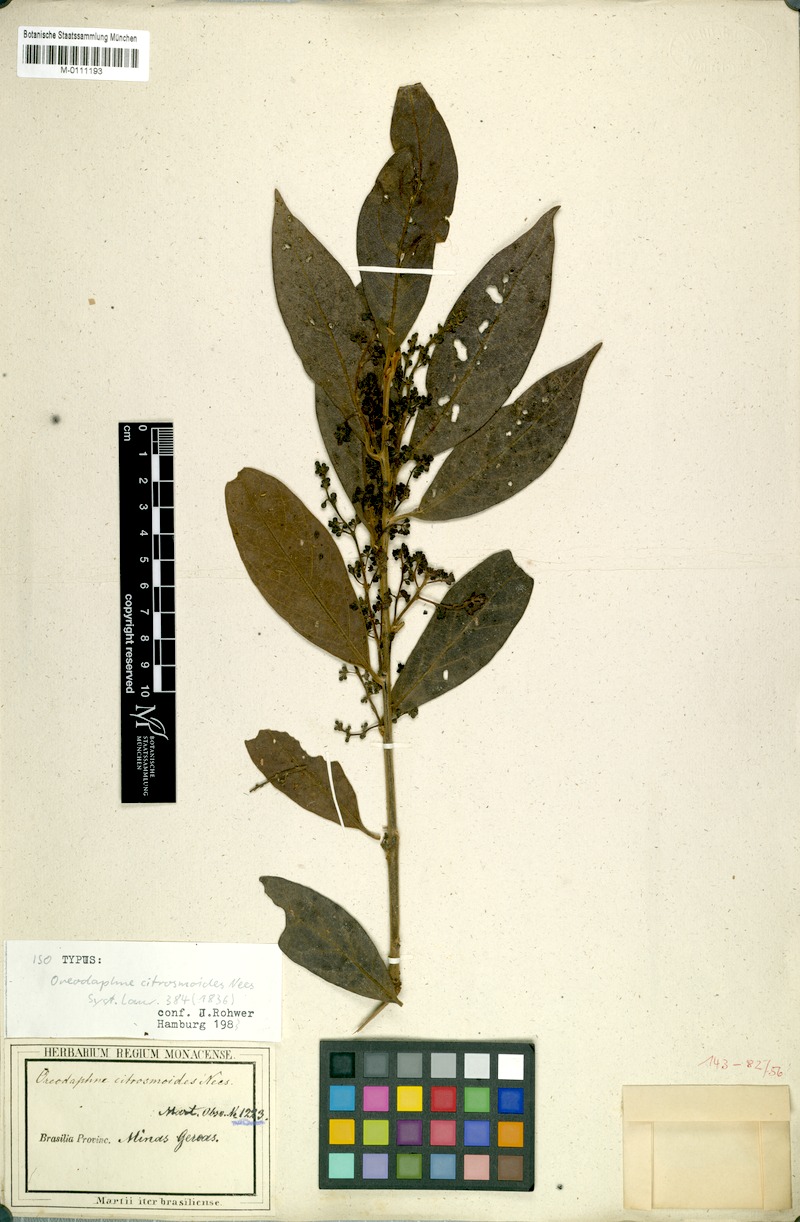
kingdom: Plantae
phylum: Tracheophyta
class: Magnoliopsida
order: Laurales
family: Lauraceae
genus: Ocotea
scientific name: Ocotea citrosmoides
